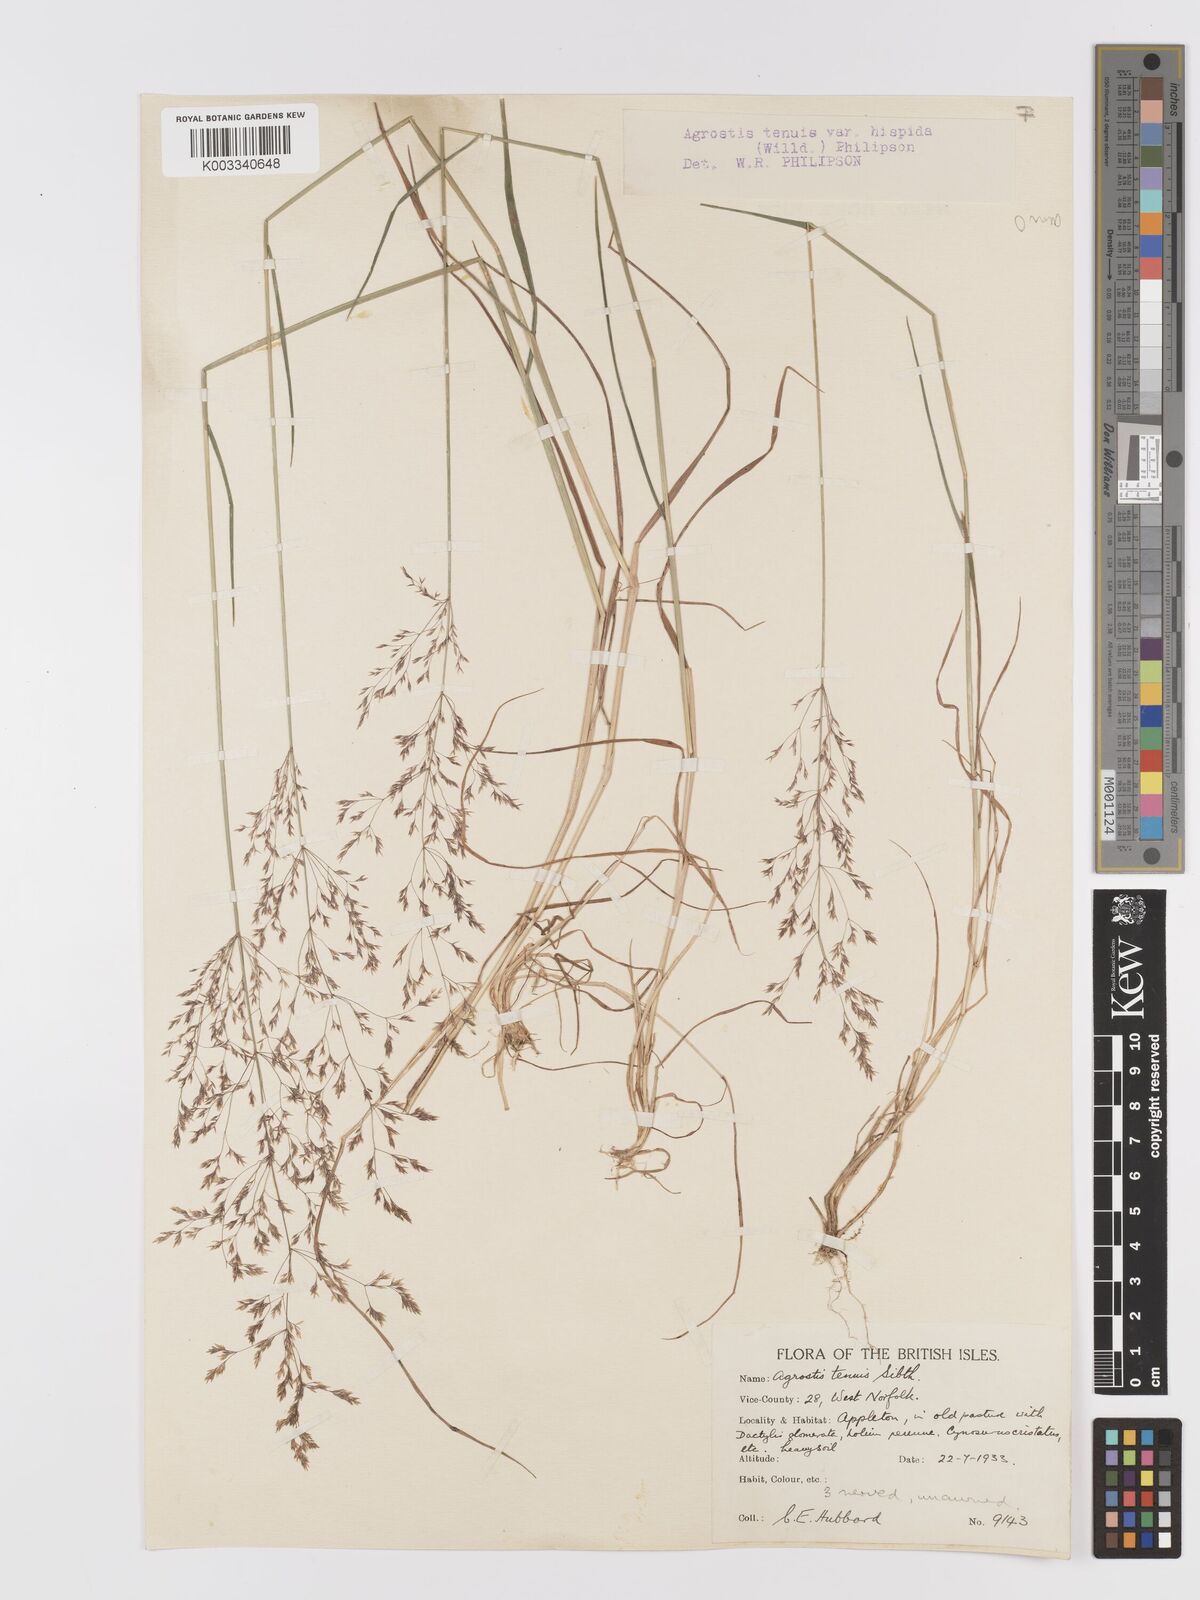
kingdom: Plantae
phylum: Tracheophyta
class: Liliopsida
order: Poales
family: Poaceae
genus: Agrostis
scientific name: Agrostis capillaris
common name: Colonial bentgrass
